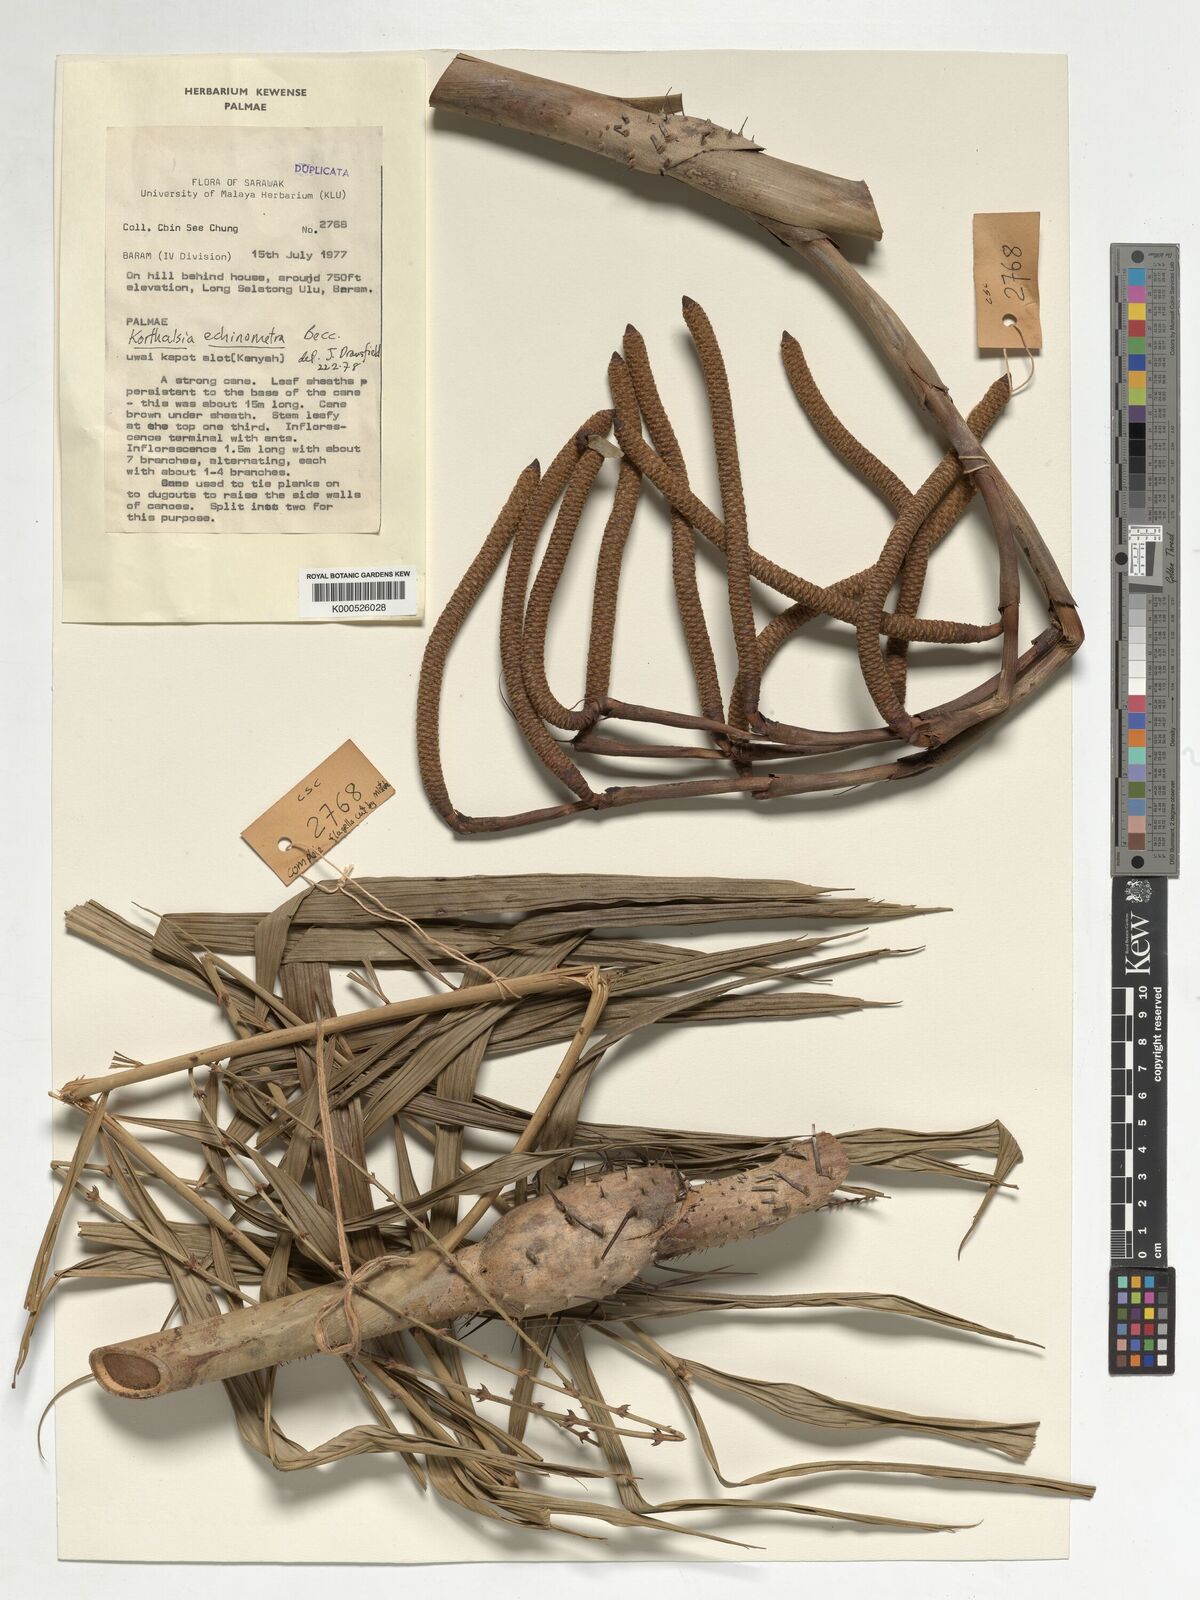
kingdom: Plantae
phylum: Tracheophyta
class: Liliopsida
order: Arecales
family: Arecaceae
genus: Korthalsia
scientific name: Korthalsia echinometra
